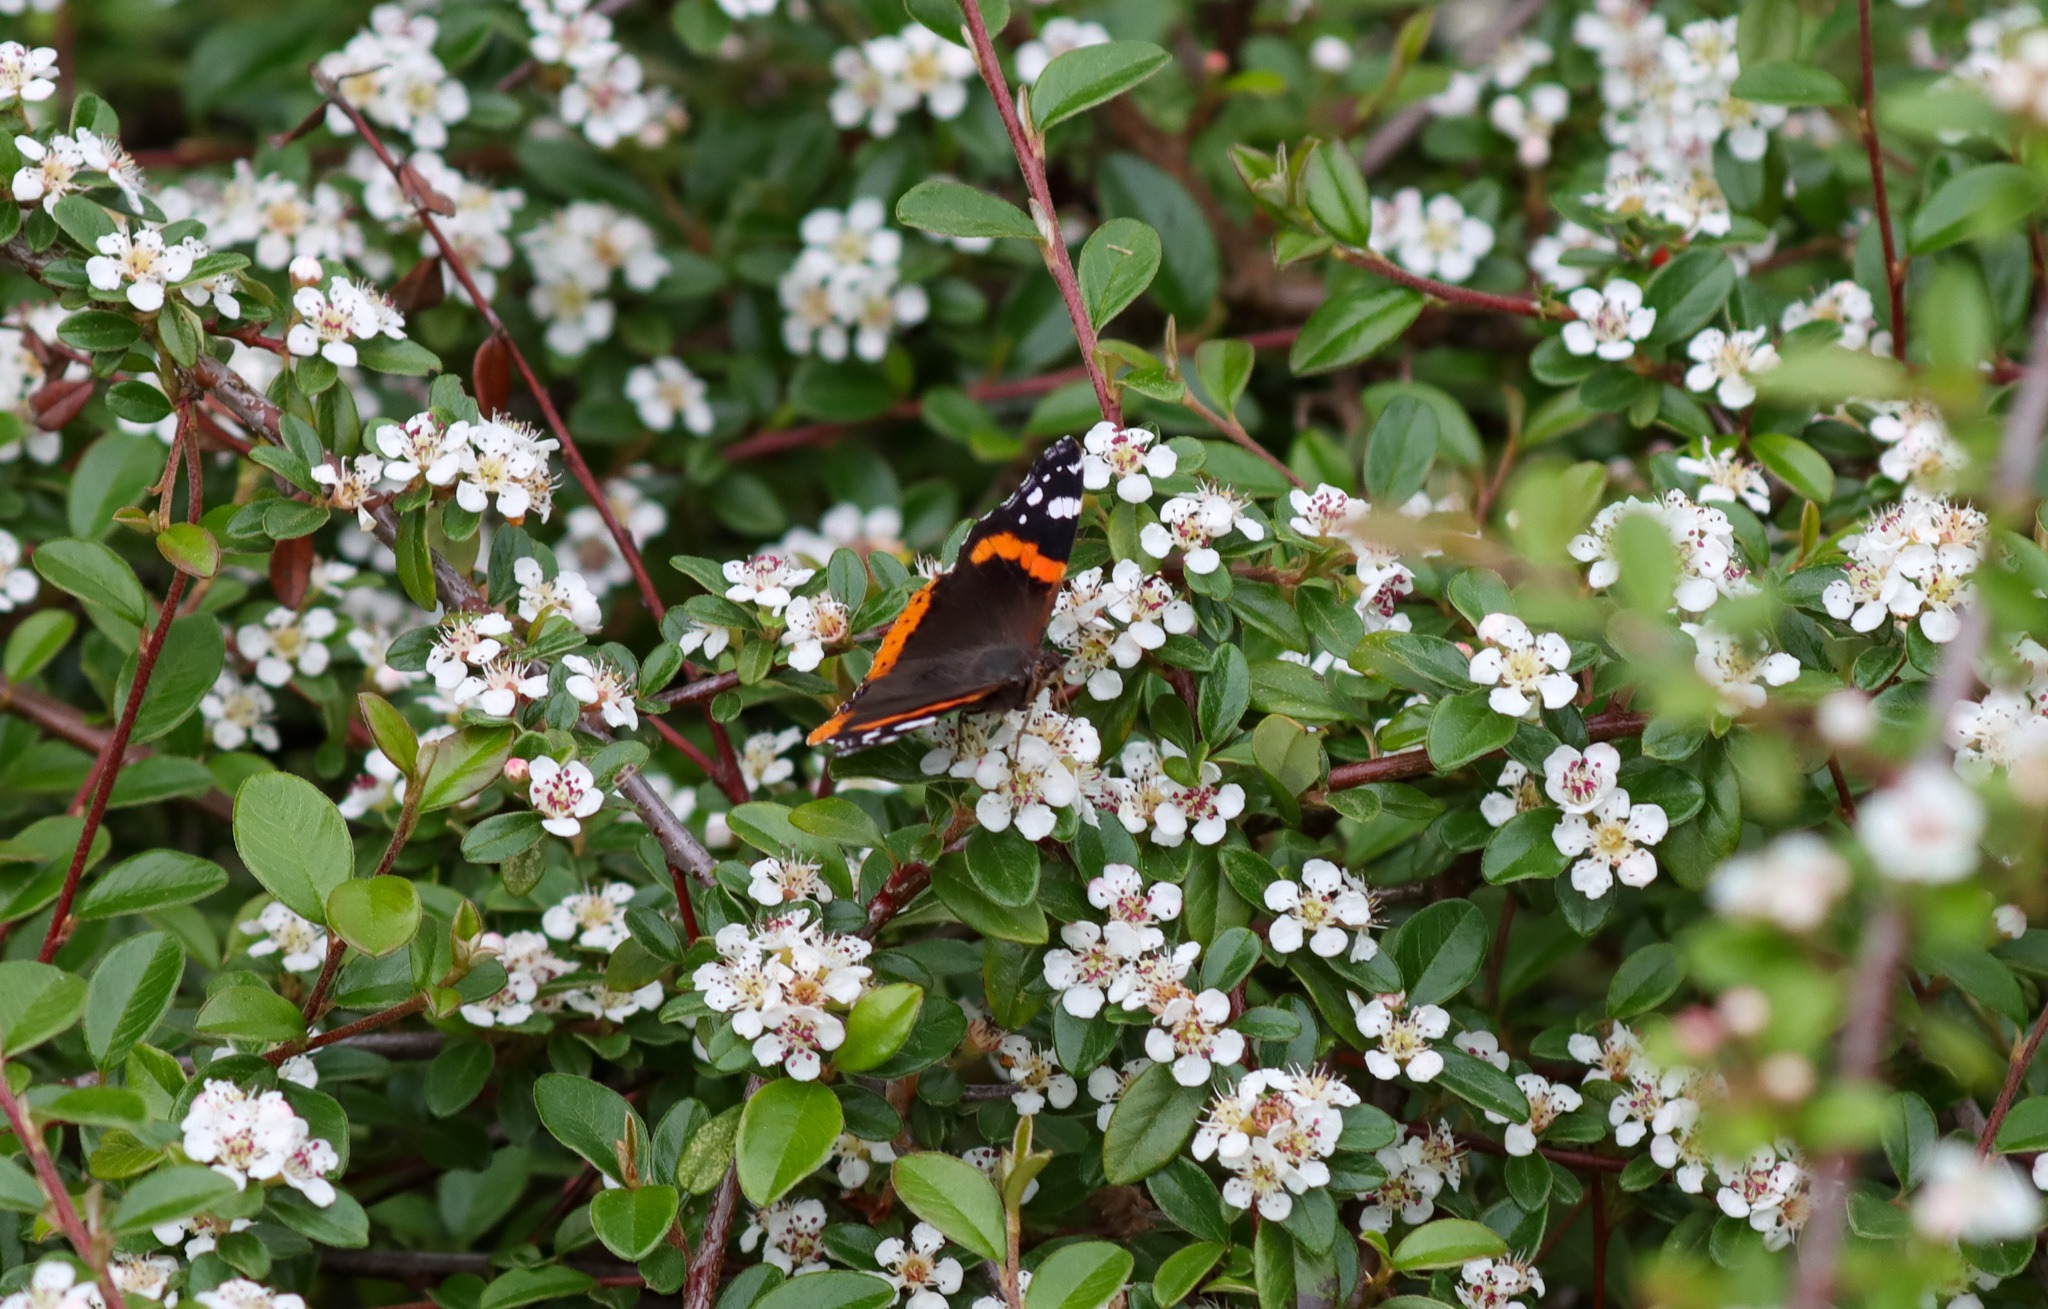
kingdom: Animalia
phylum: Arthropoda
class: Insecta
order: Lepidoptera
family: Nymphalidae
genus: Vanessa
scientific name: Vanessa atalanta
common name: Admiral
